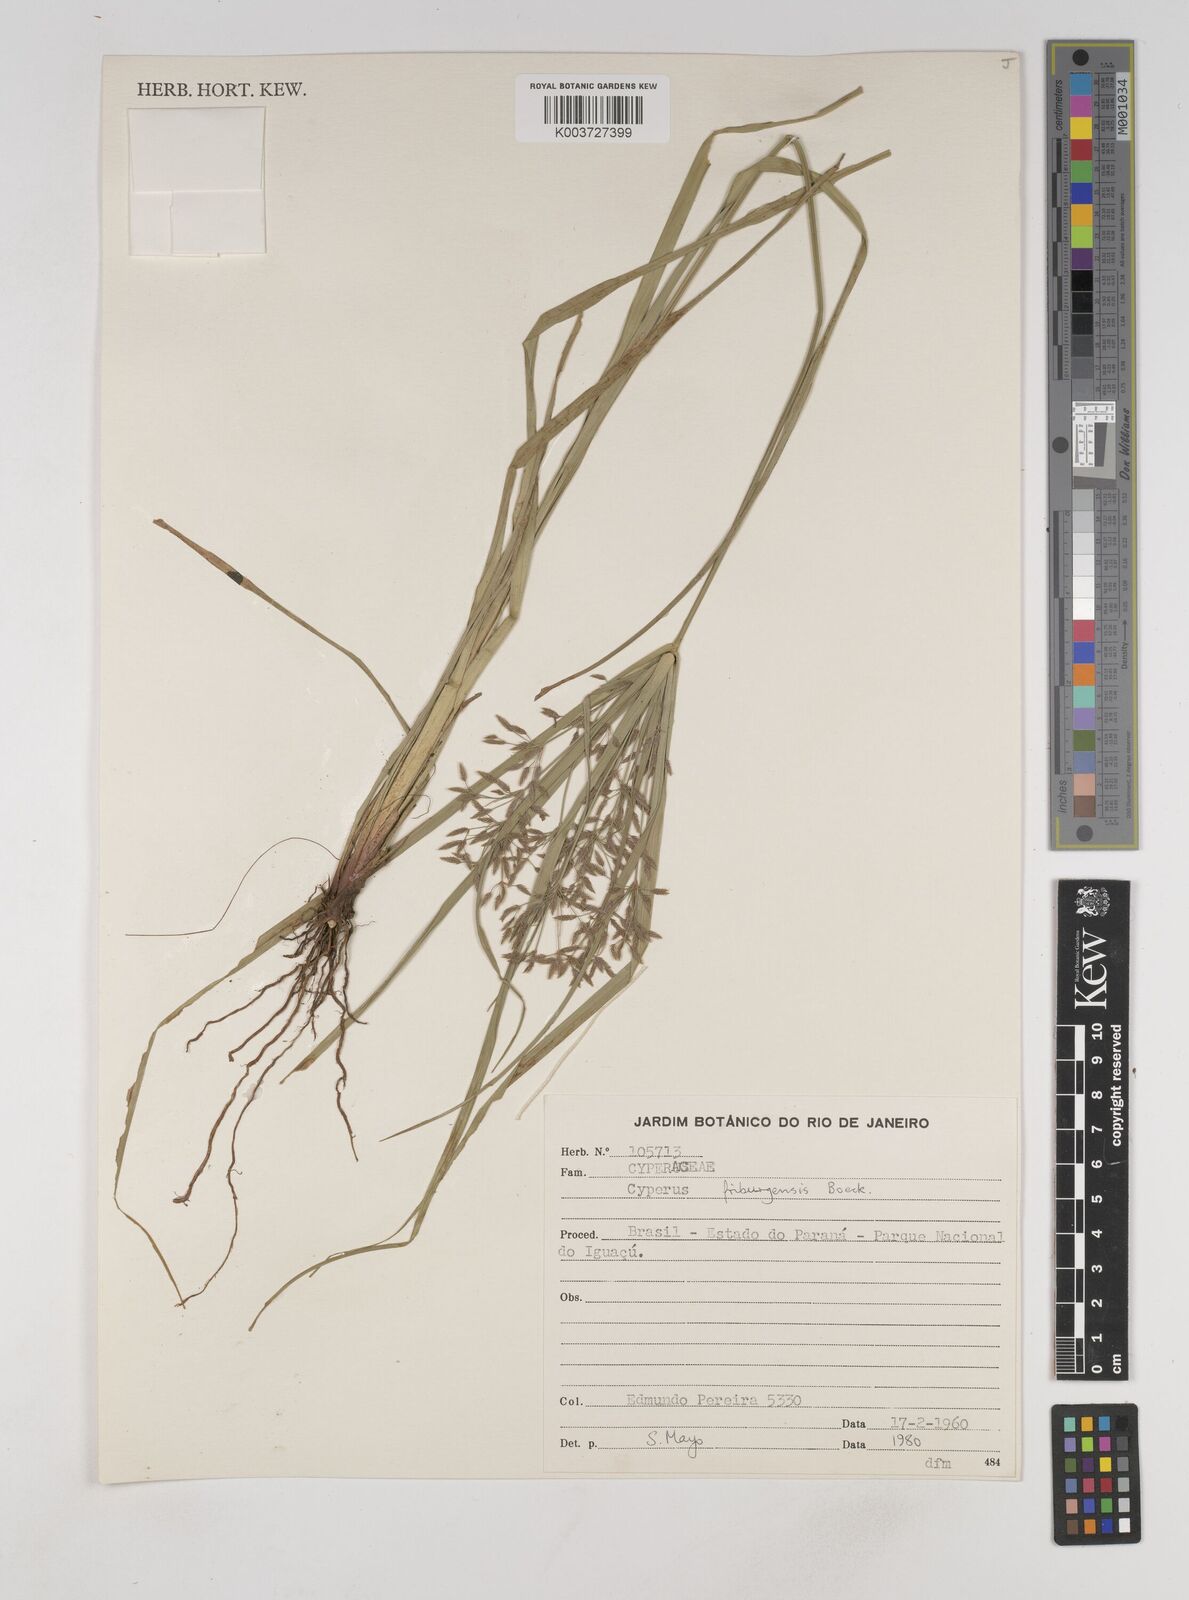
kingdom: Plantae
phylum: Tracheophyta
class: Liliopsida
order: Poales
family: Cyperaceae
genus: Cyperus
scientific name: Cyperus friburgensis
